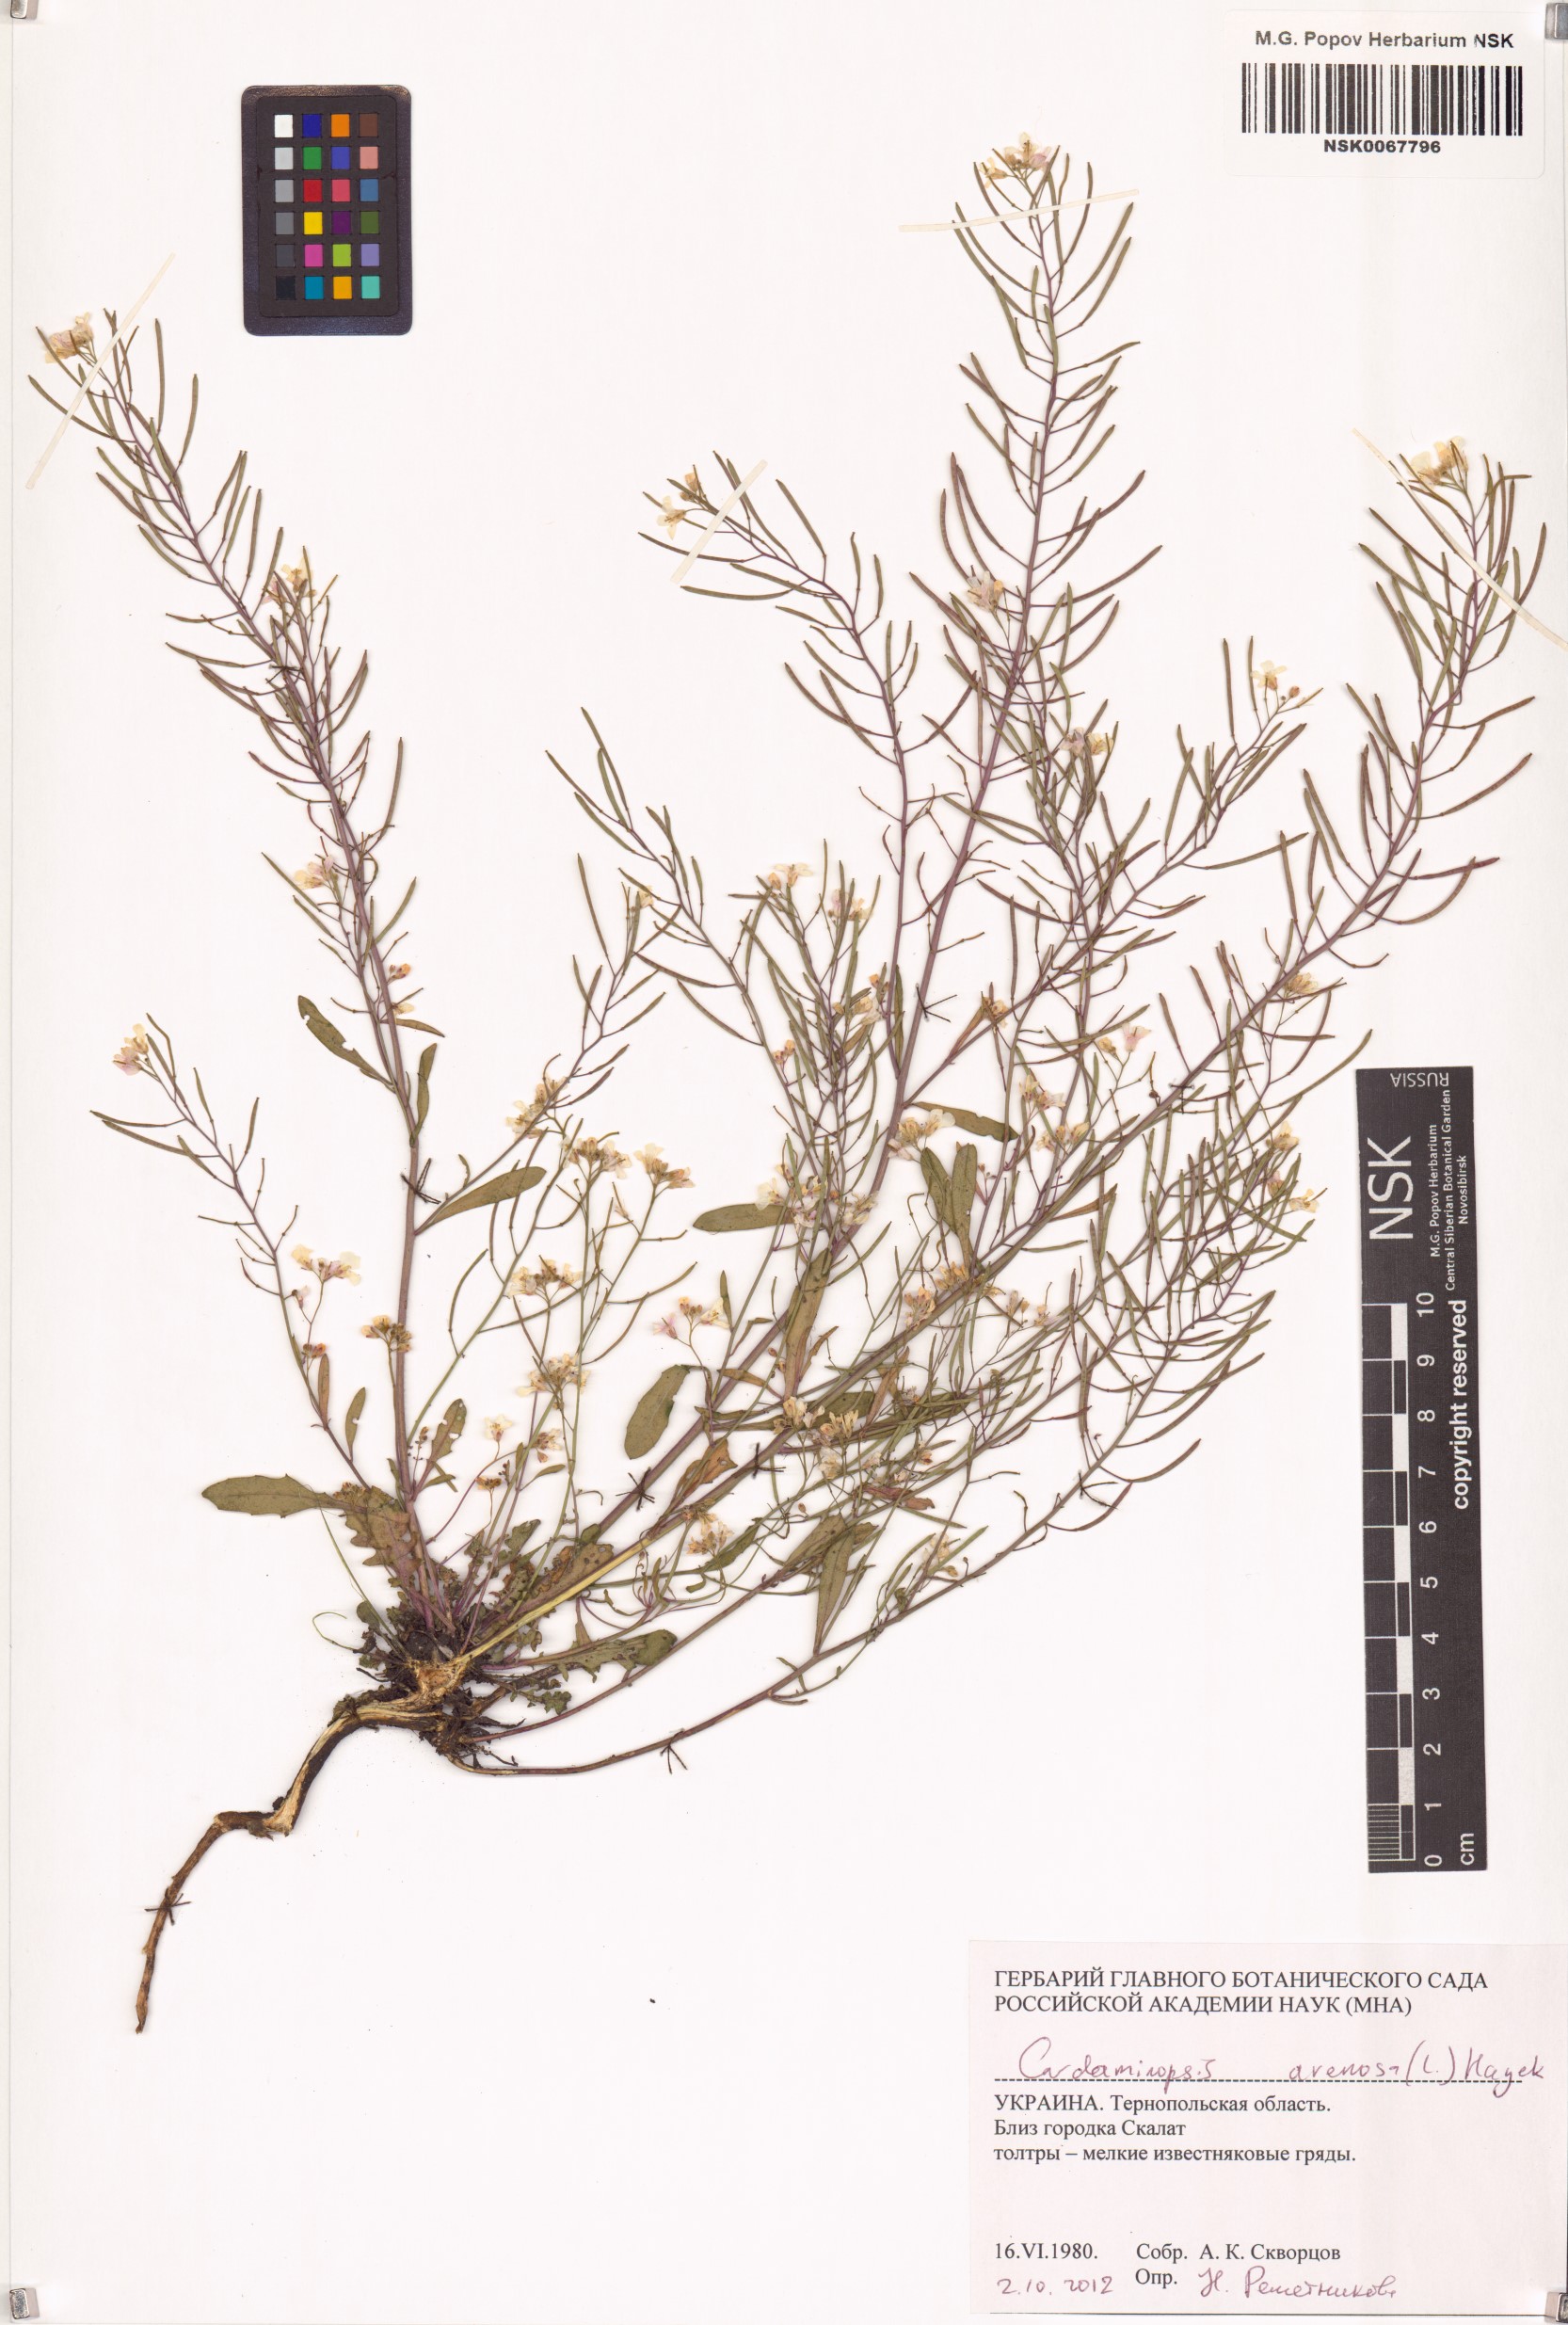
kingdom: Plantae
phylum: Tracheophyta
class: Magnoliopsida
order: Brassicales
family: Brassicaceae
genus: Arabidopsis
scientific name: Arabidopsis arenosa
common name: Sand rock-cress
